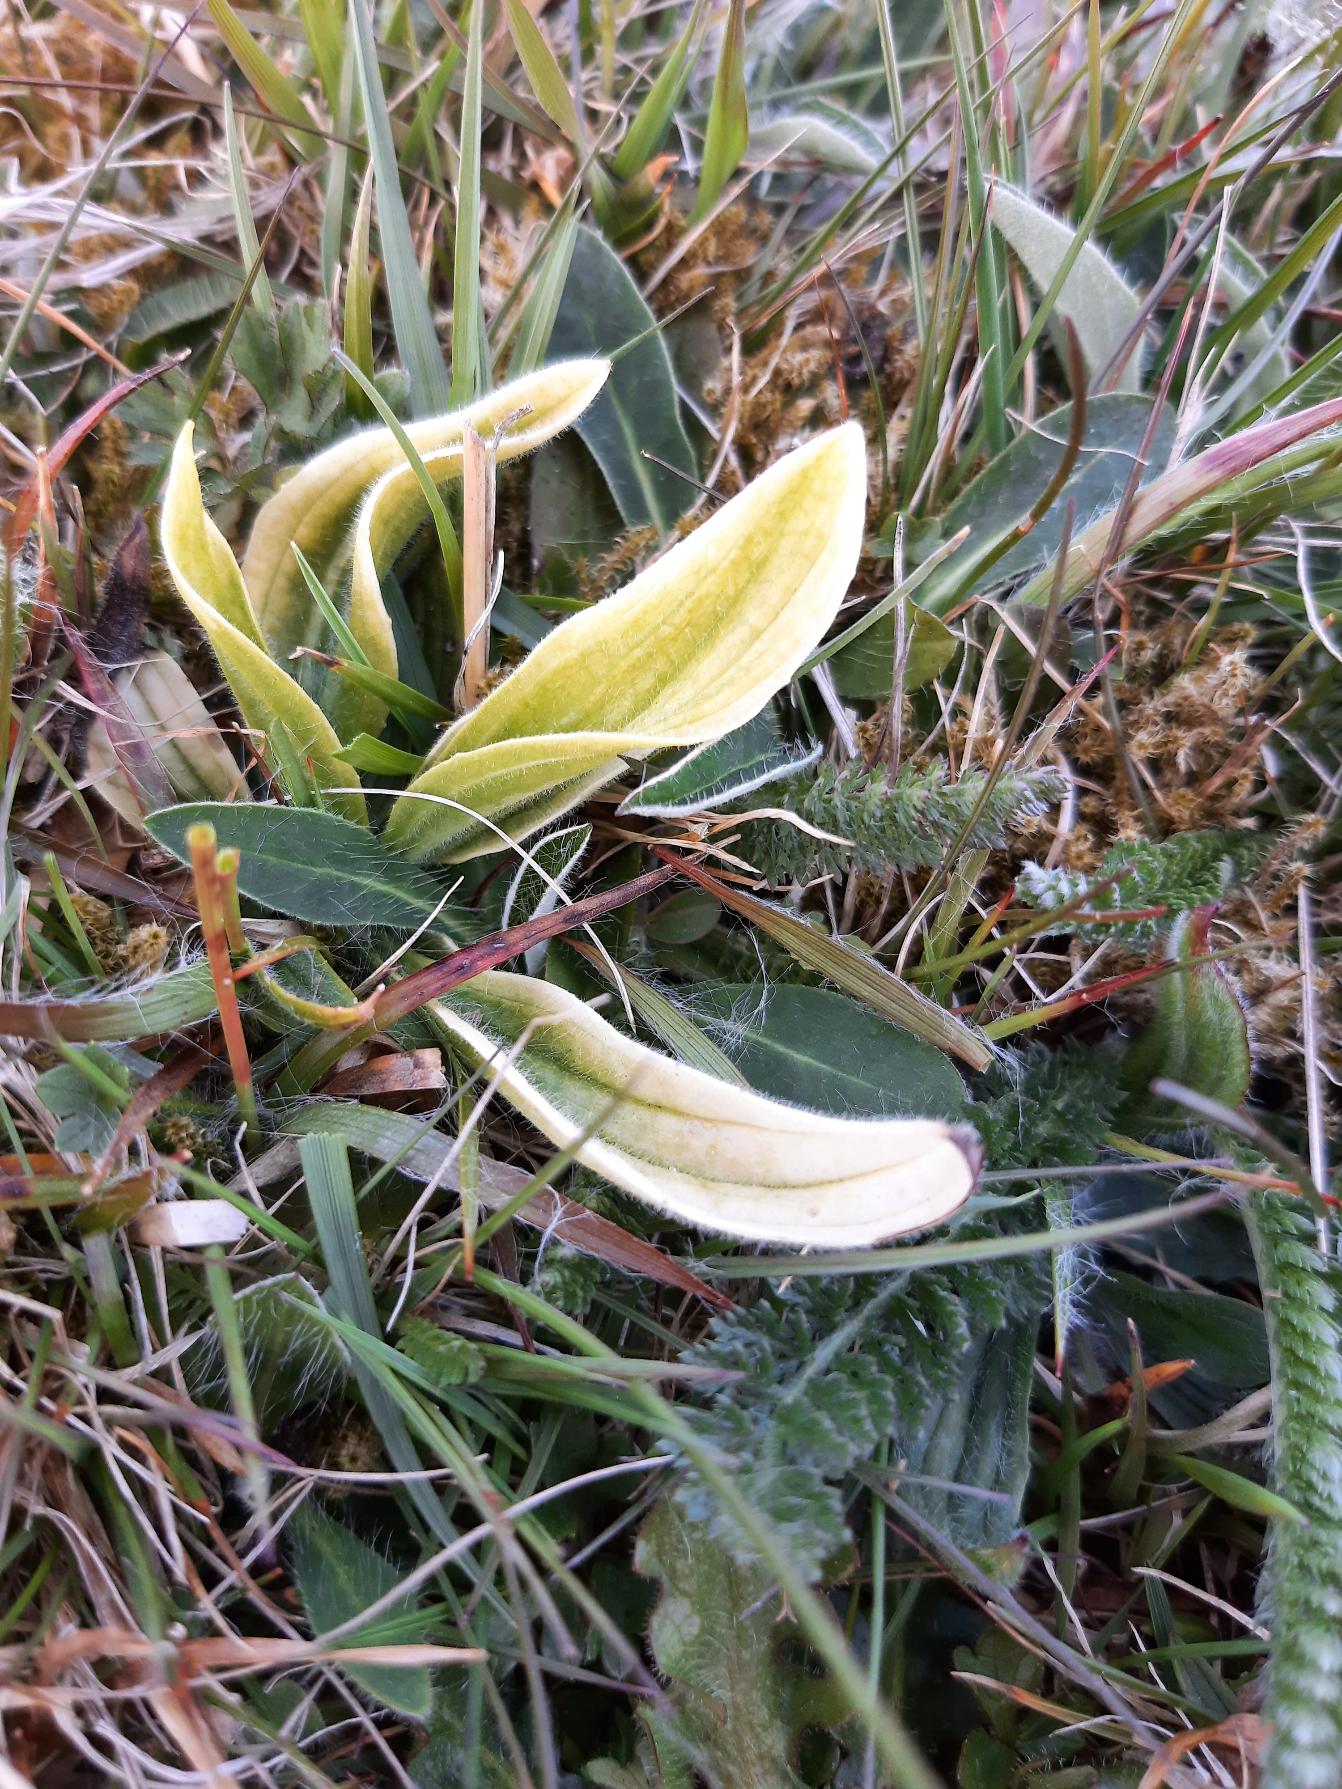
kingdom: Plantae
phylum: Tracheophyta
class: Magnoliopsida
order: Lamiales
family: Plantaginaceae
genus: Plantago
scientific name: Plantago lanceolata
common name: Lancet-vejbred
